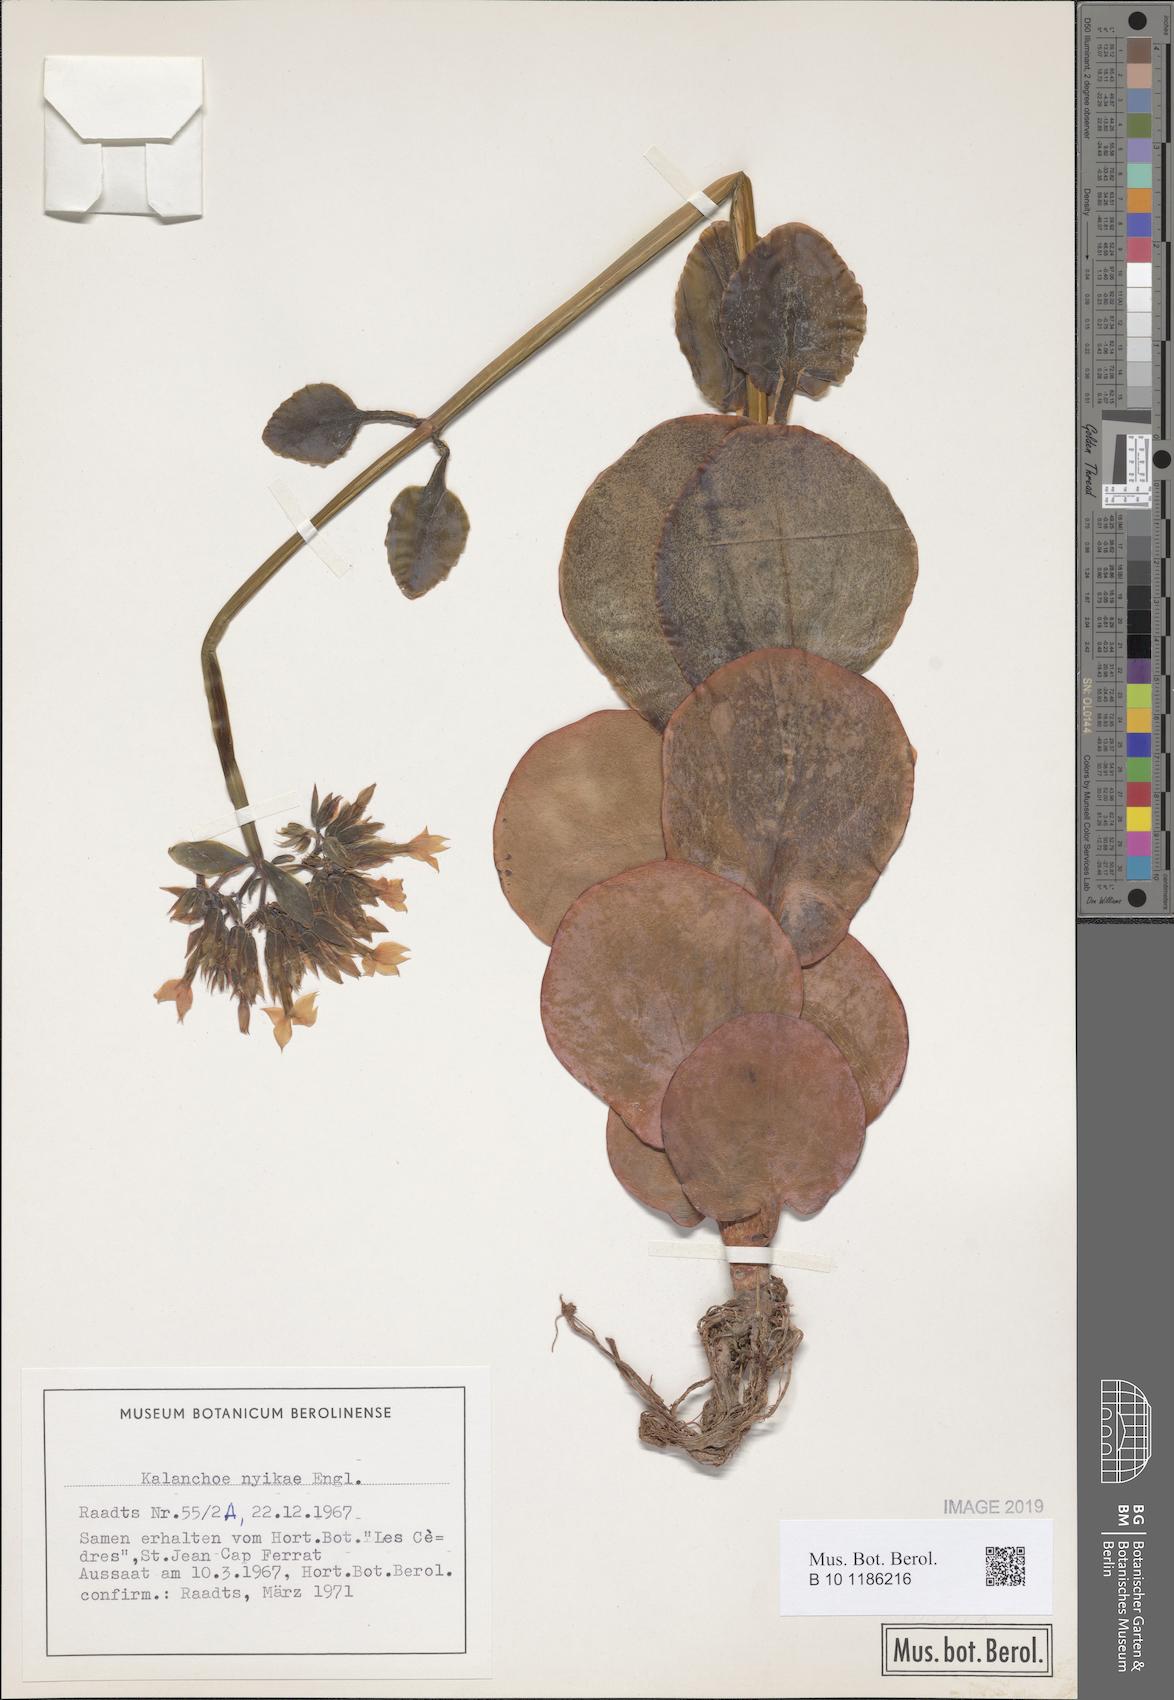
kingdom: Plantae
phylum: Tracheophyta
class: Magnoliopsida
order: Saxifragales
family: Crassulaceae
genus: Kalanchoe
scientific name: Kalanchoe nyikae
